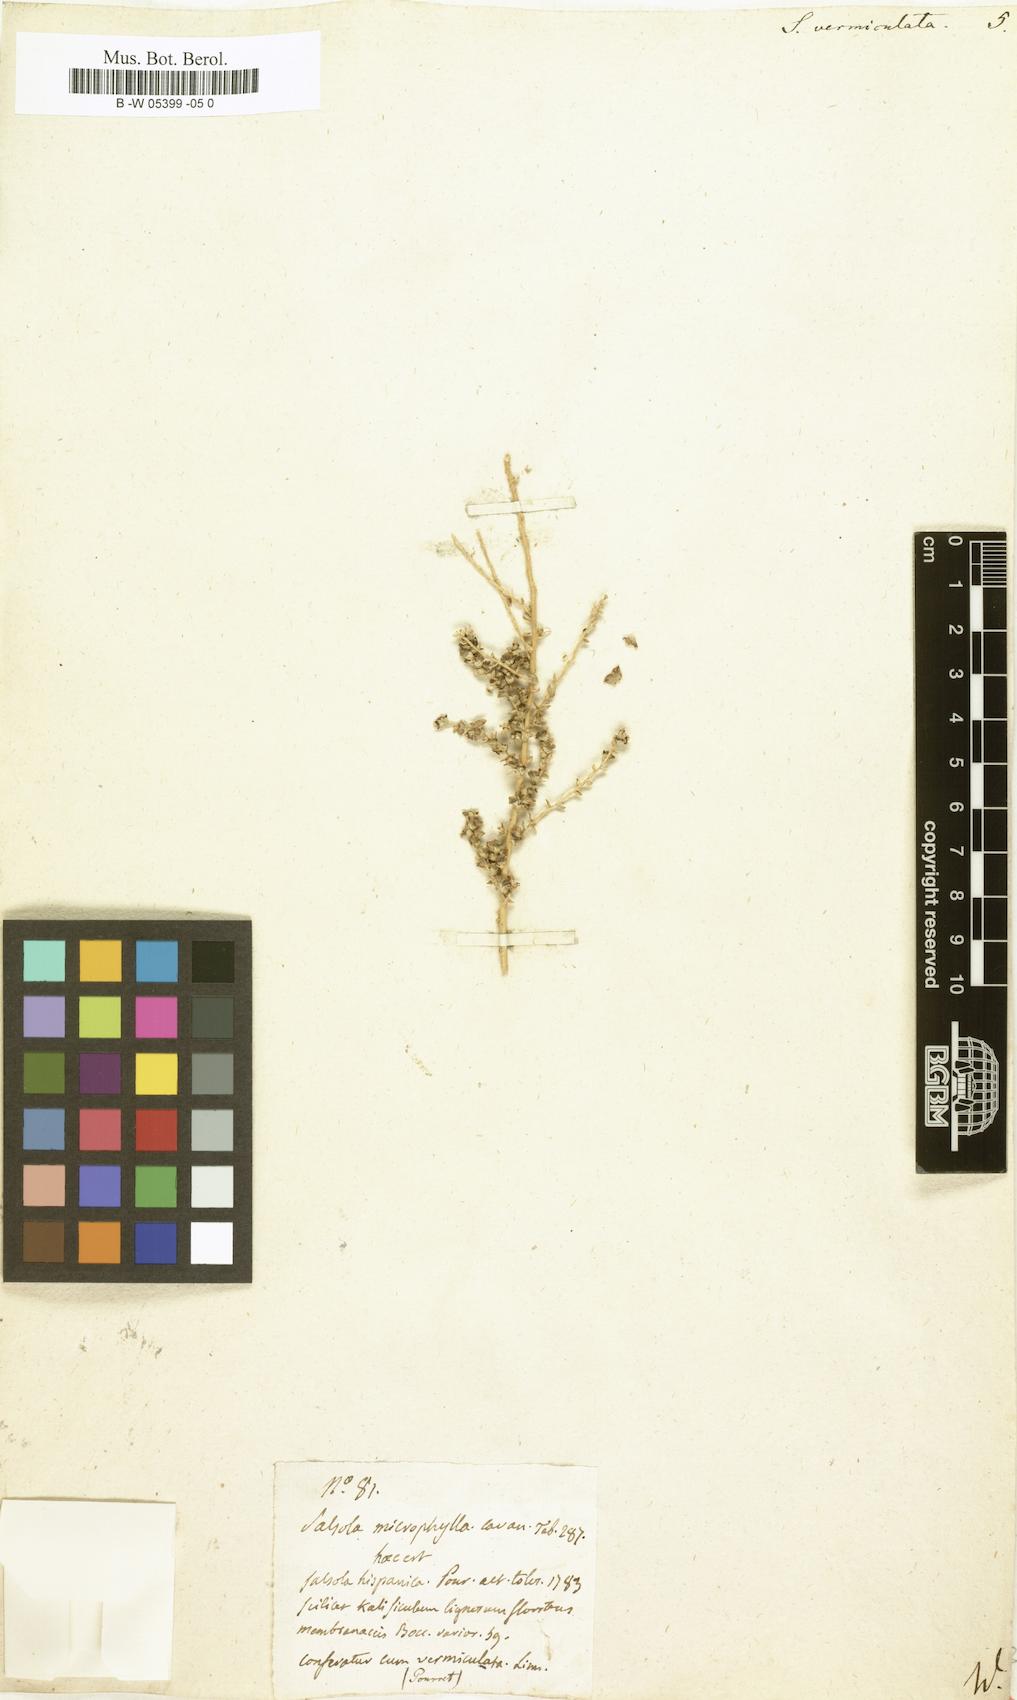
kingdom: Plantae
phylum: Tracheophyta
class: Magnoliopsida
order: Caryophyllales
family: Amaranthaceae
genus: Nitrosalsola
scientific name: Nitrosalsola vermiculata
